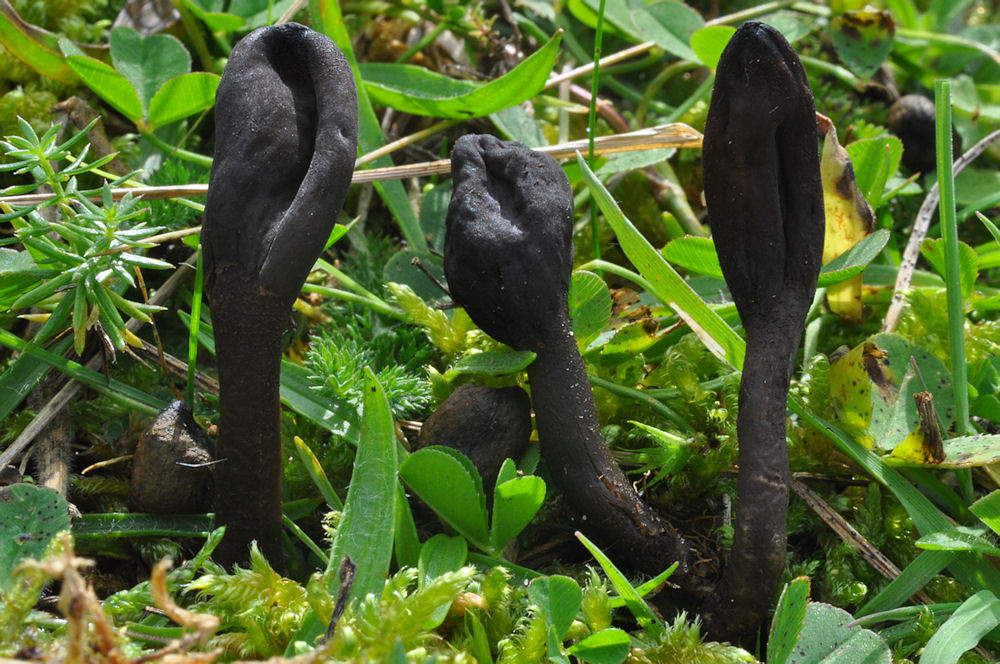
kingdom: Fungi
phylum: Ascomycota
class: Geoglossomycetes
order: Geoglossales
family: Geoglossaceae
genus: Geoglossum
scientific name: Geoglossum atropurpureum
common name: purpursort farvetunge
